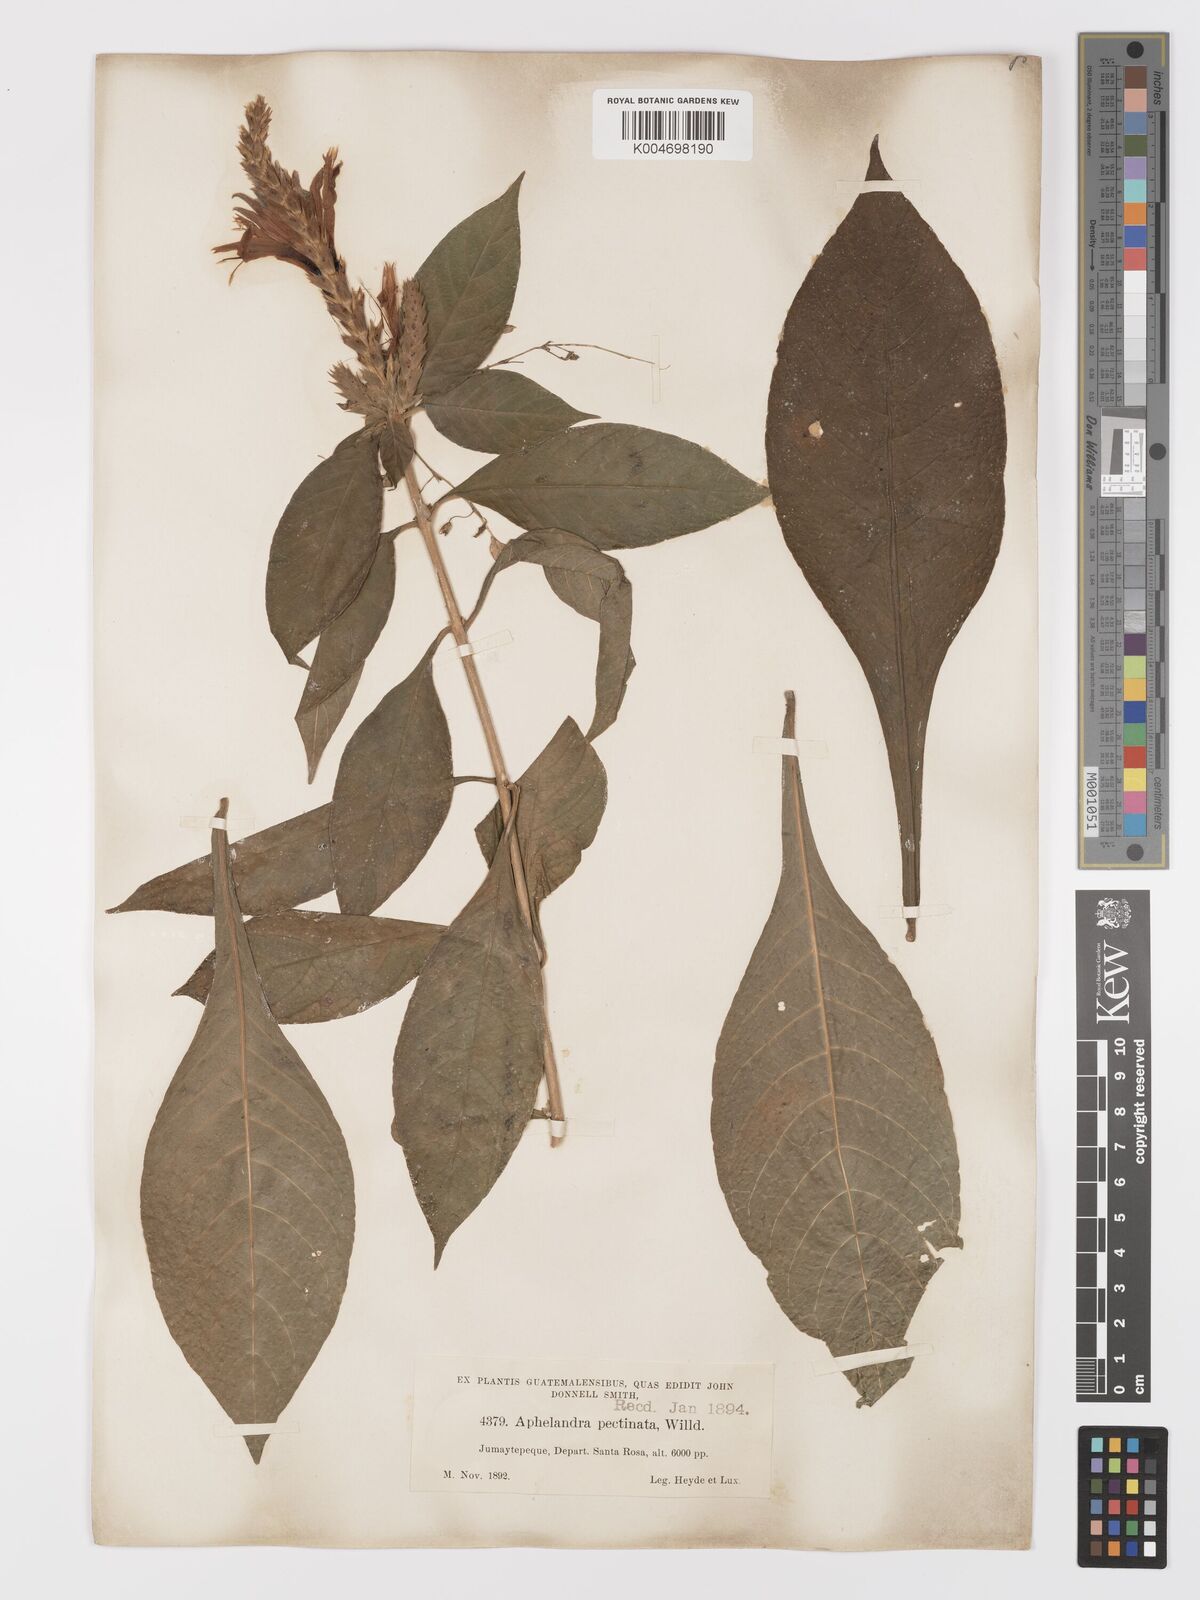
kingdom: Plantae
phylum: Tracheophyta
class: Magnoliopsida
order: Lamiales
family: Acanthaceae
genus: Aphelandra
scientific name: Aphelandra scabra
